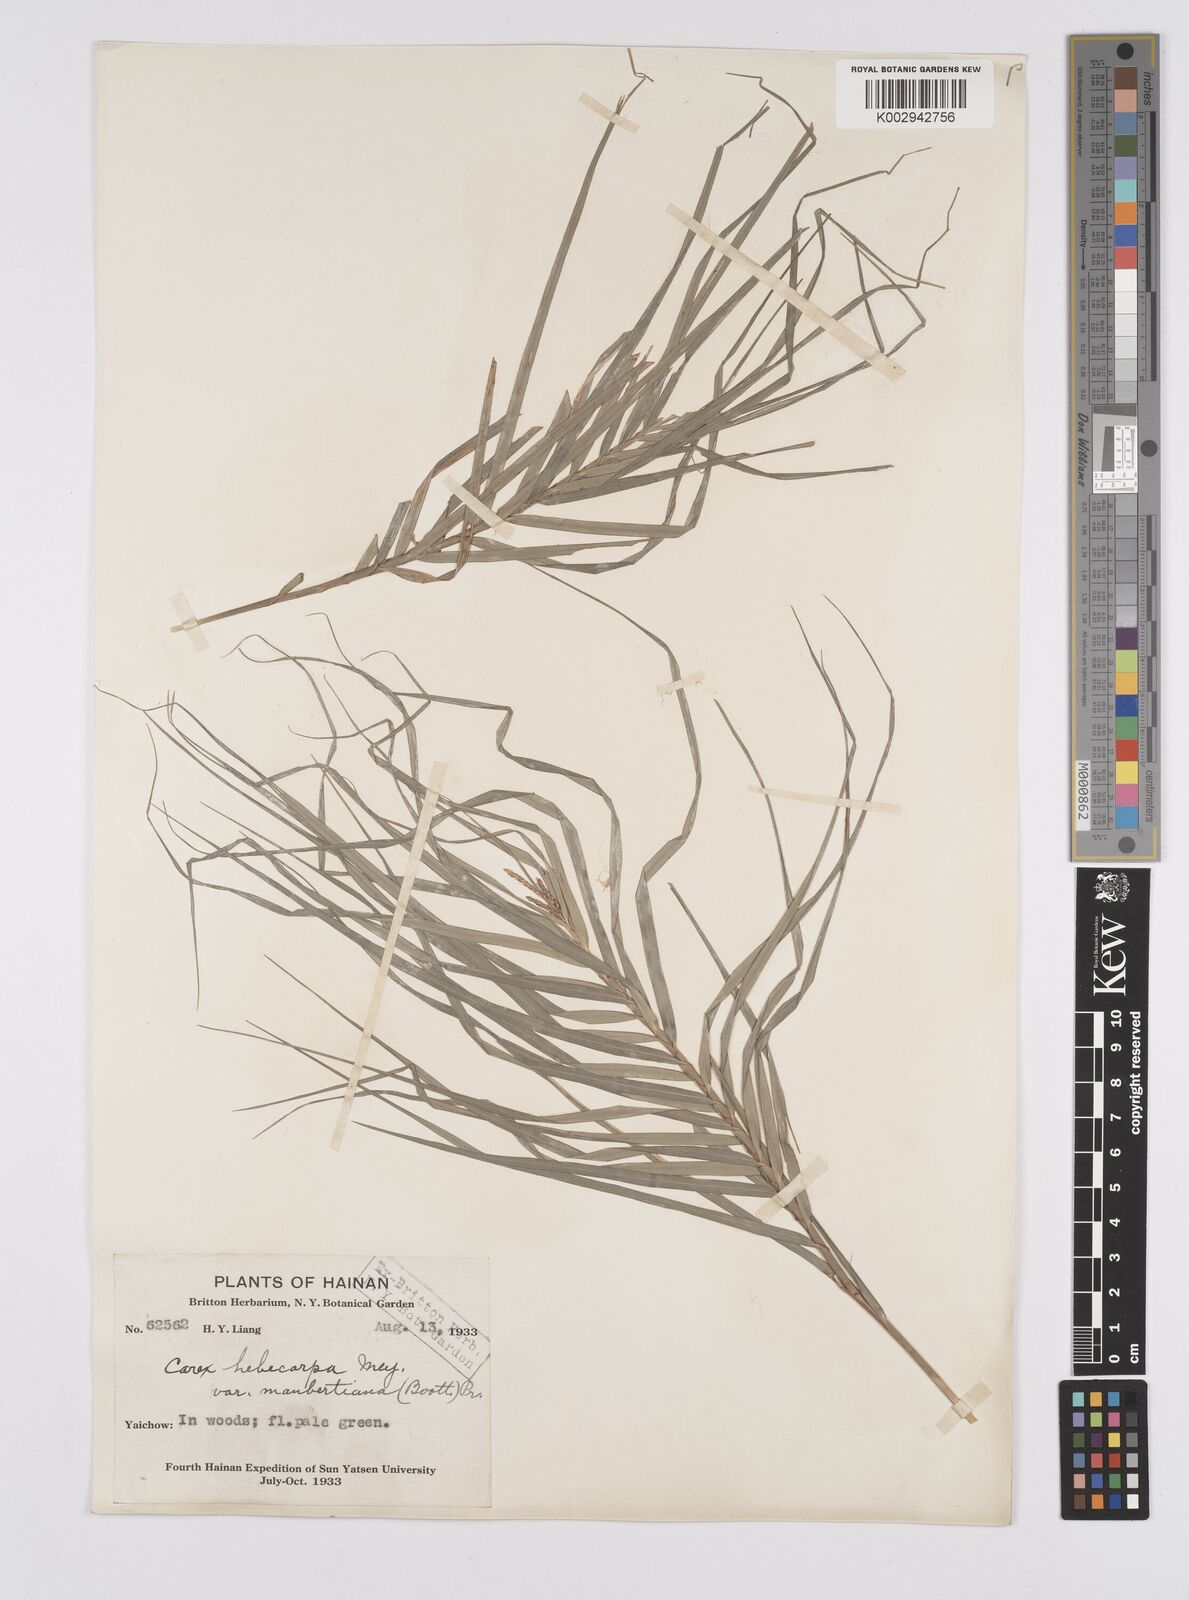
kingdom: Plantae
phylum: Tracheophyta
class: Liliopsida
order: Poales
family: Cyperaceae
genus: Carex
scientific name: Carex maubertiana
